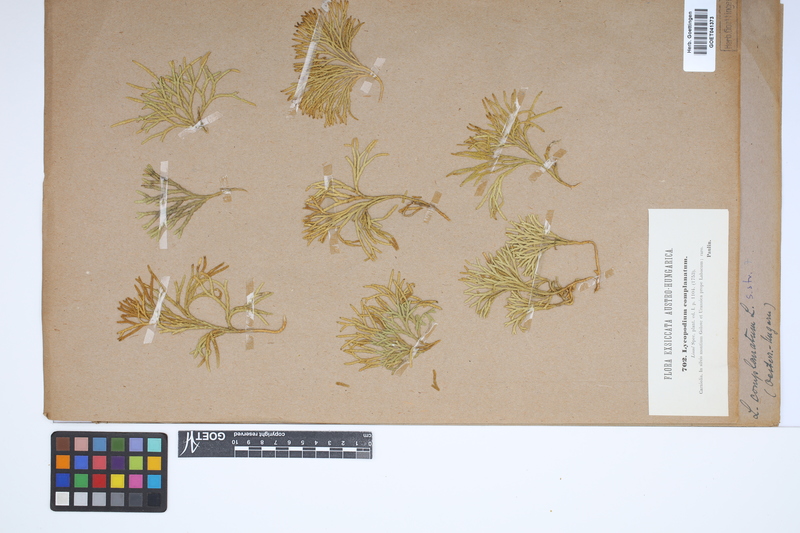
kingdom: Plantae
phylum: Tracheophyta
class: Lycopodiopsida
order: Lycopodiales
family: Lycopodiaceae
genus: Diphasiastrum
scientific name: Diphasiastrum complanatum
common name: Northern running-pine
